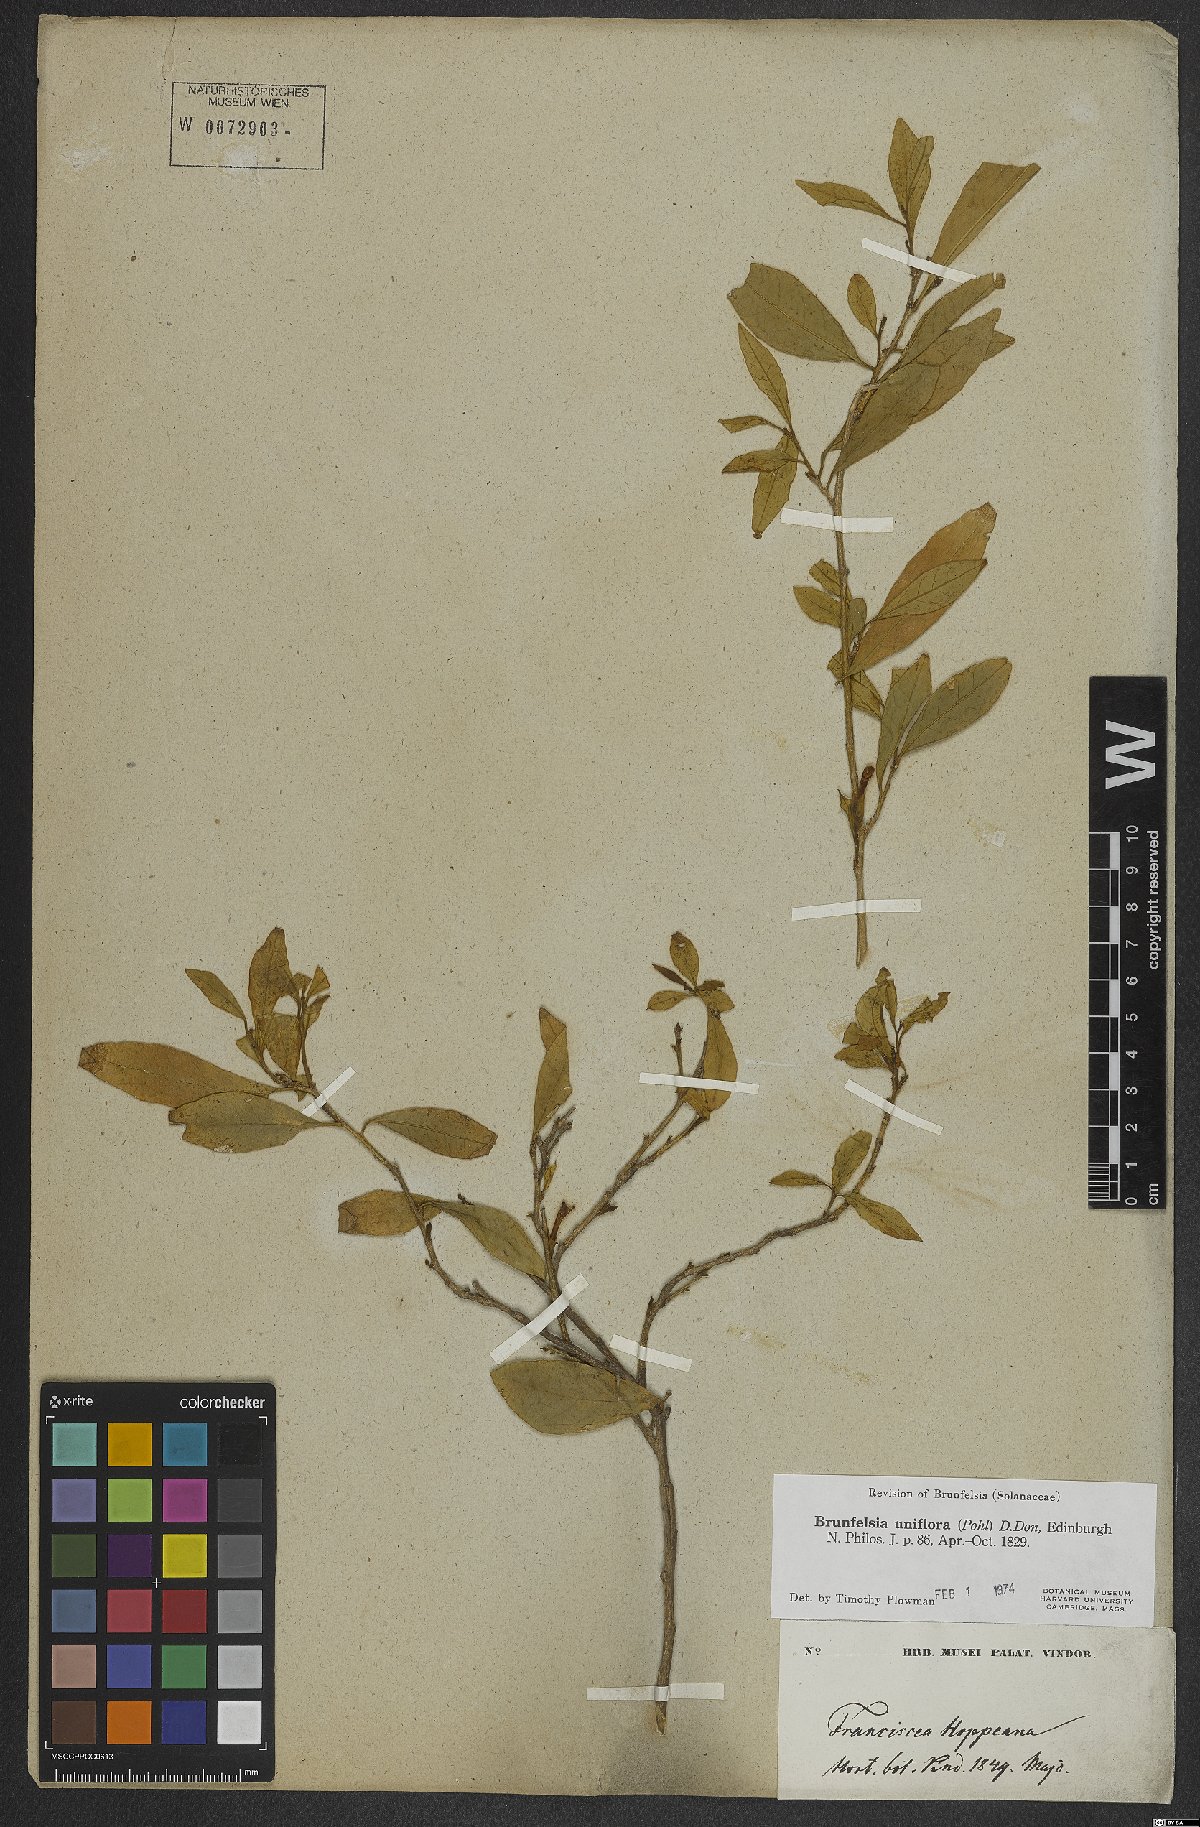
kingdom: Plantae
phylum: Tracheophyta
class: Magnoliopsida
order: Solanales
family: Solanaceae
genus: Brunfelsia
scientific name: Brunfelsia uniflora
